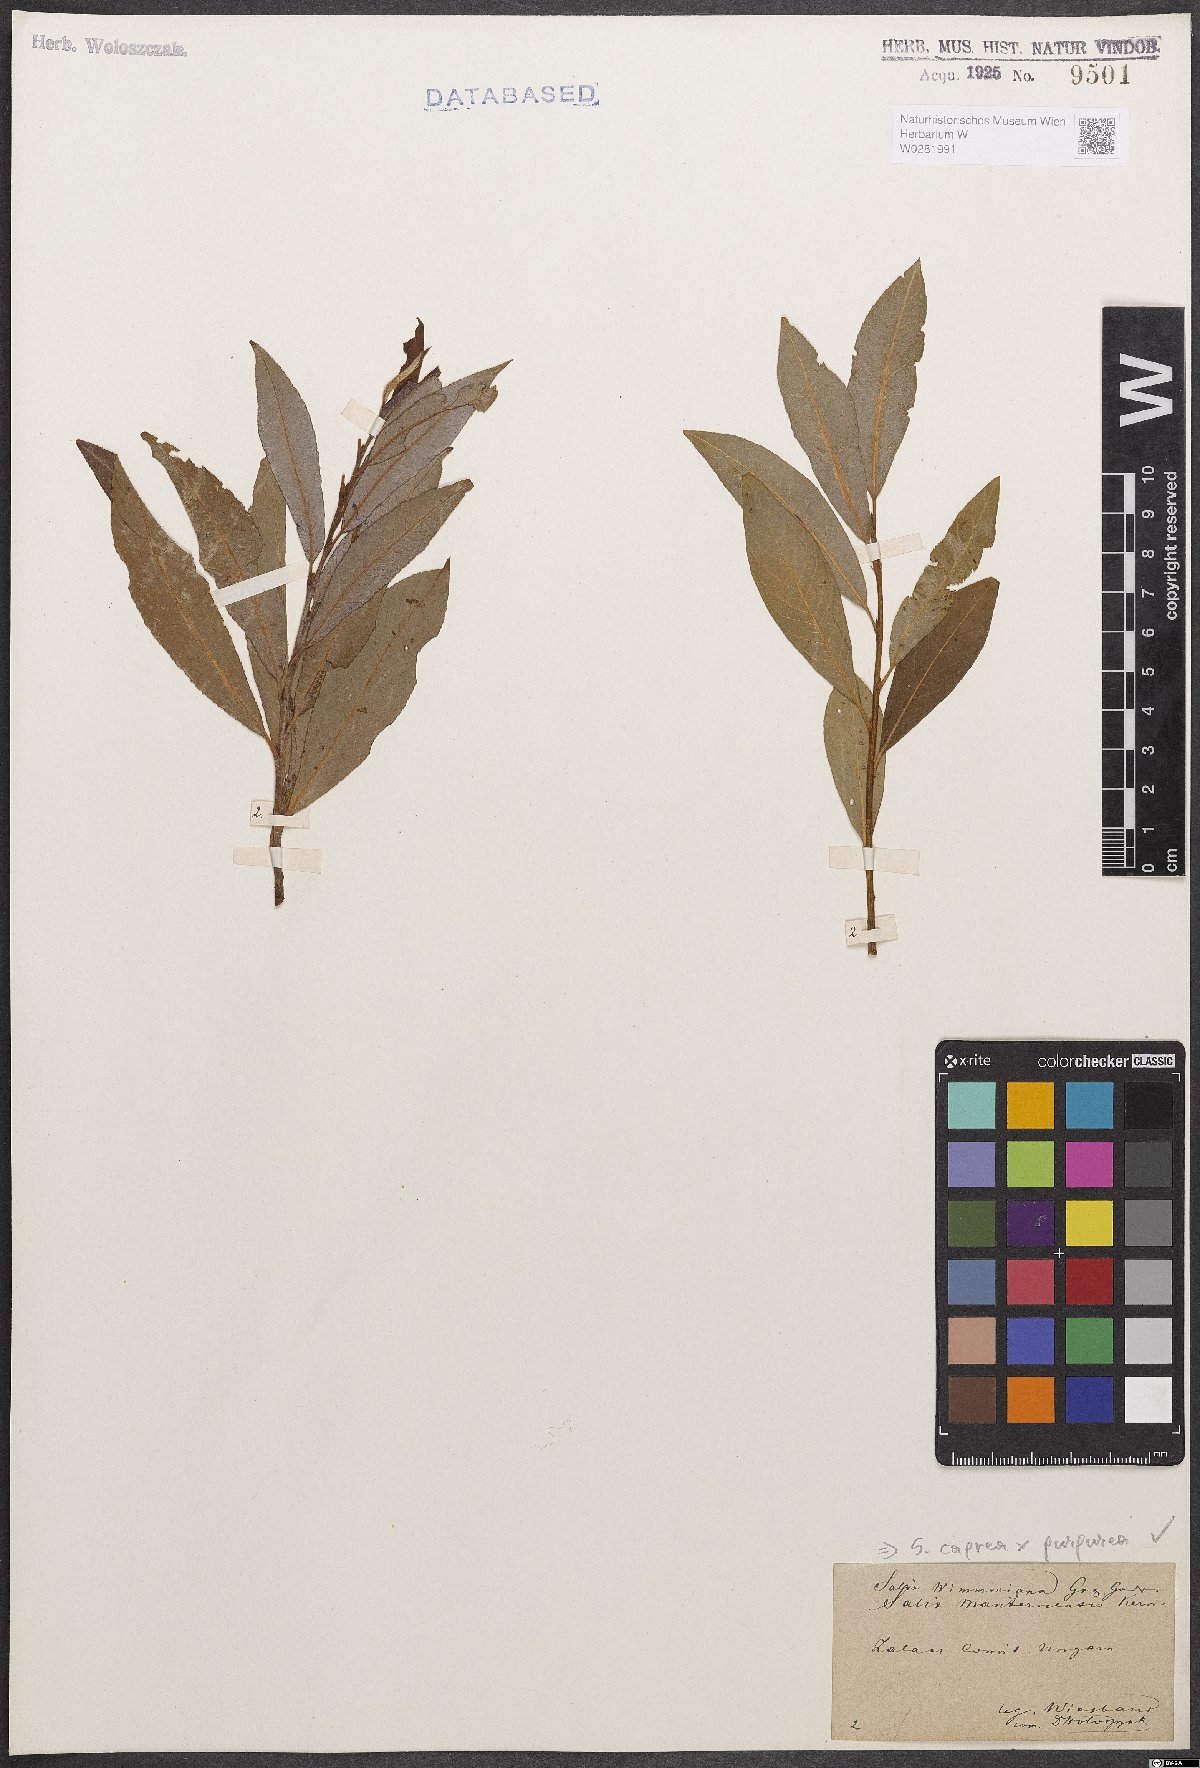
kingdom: Plantae
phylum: Tracheophyta
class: Magnoliopsida
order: Malpighiales
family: Salicaceae
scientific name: Salicaceae
